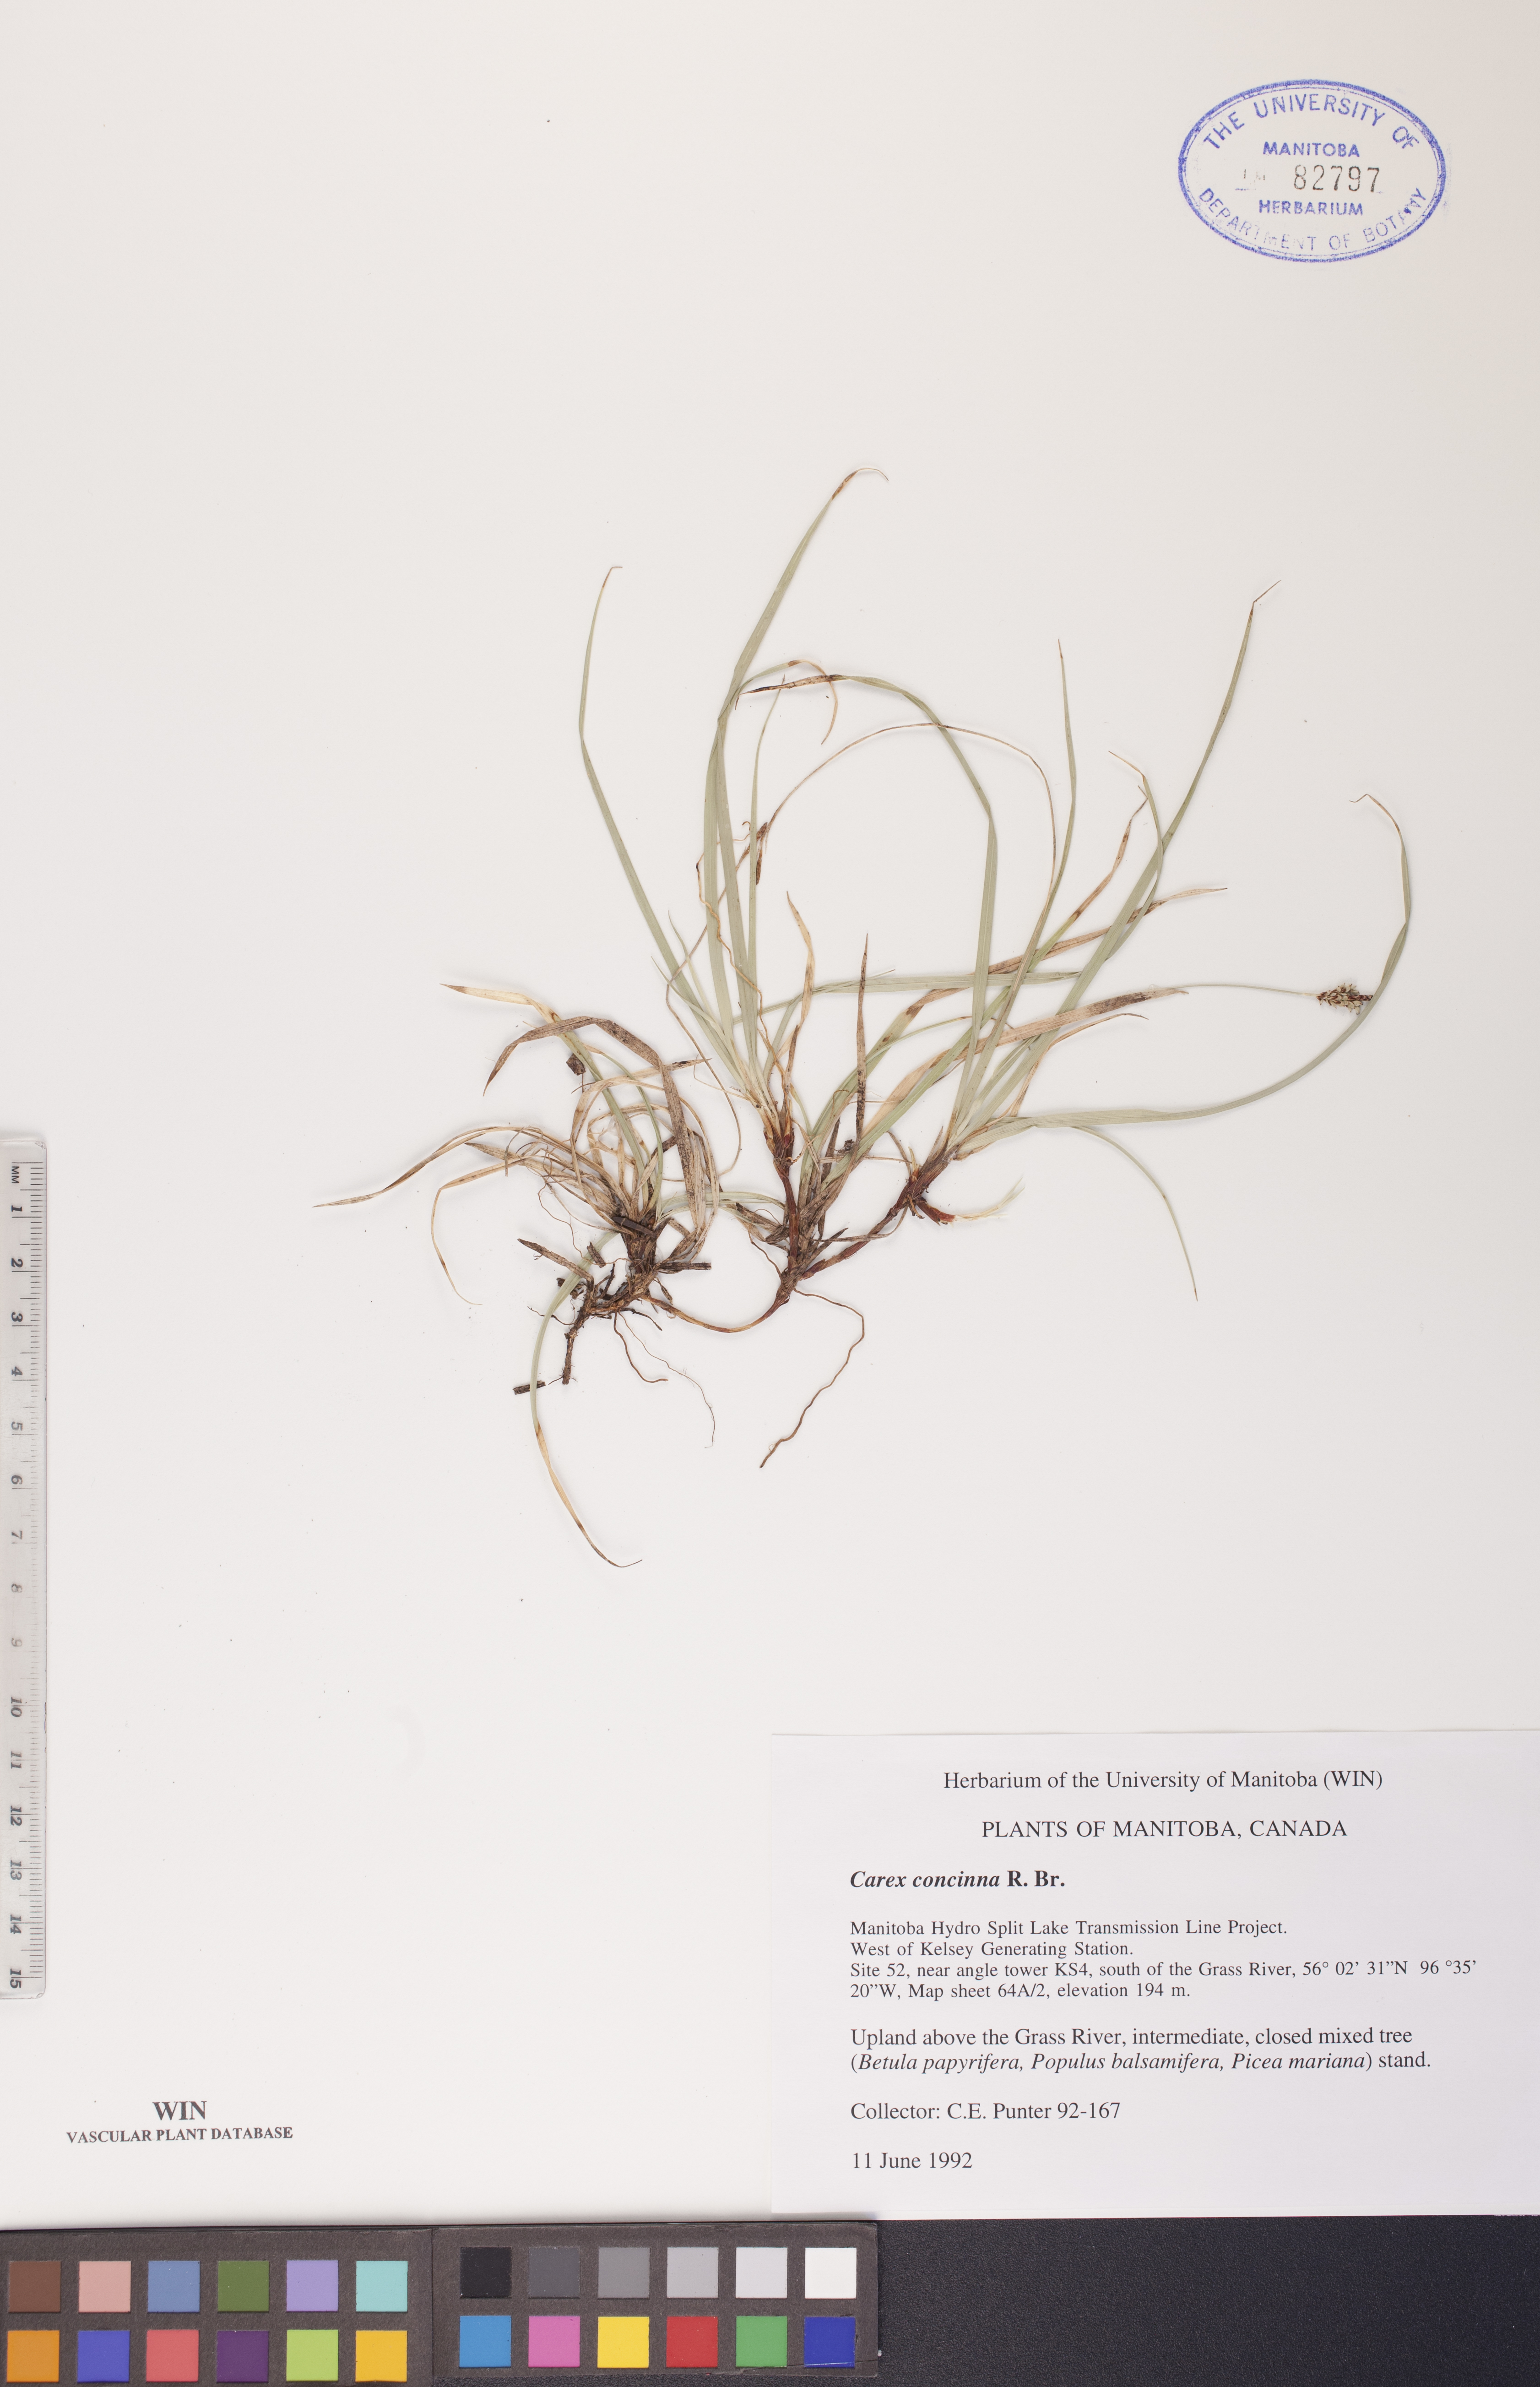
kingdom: Plantae
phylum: Tracheophyta
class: Liliopsida
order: Poales
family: Cyperaceae
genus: Carex
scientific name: Carex concinna
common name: Beautiful sedge
